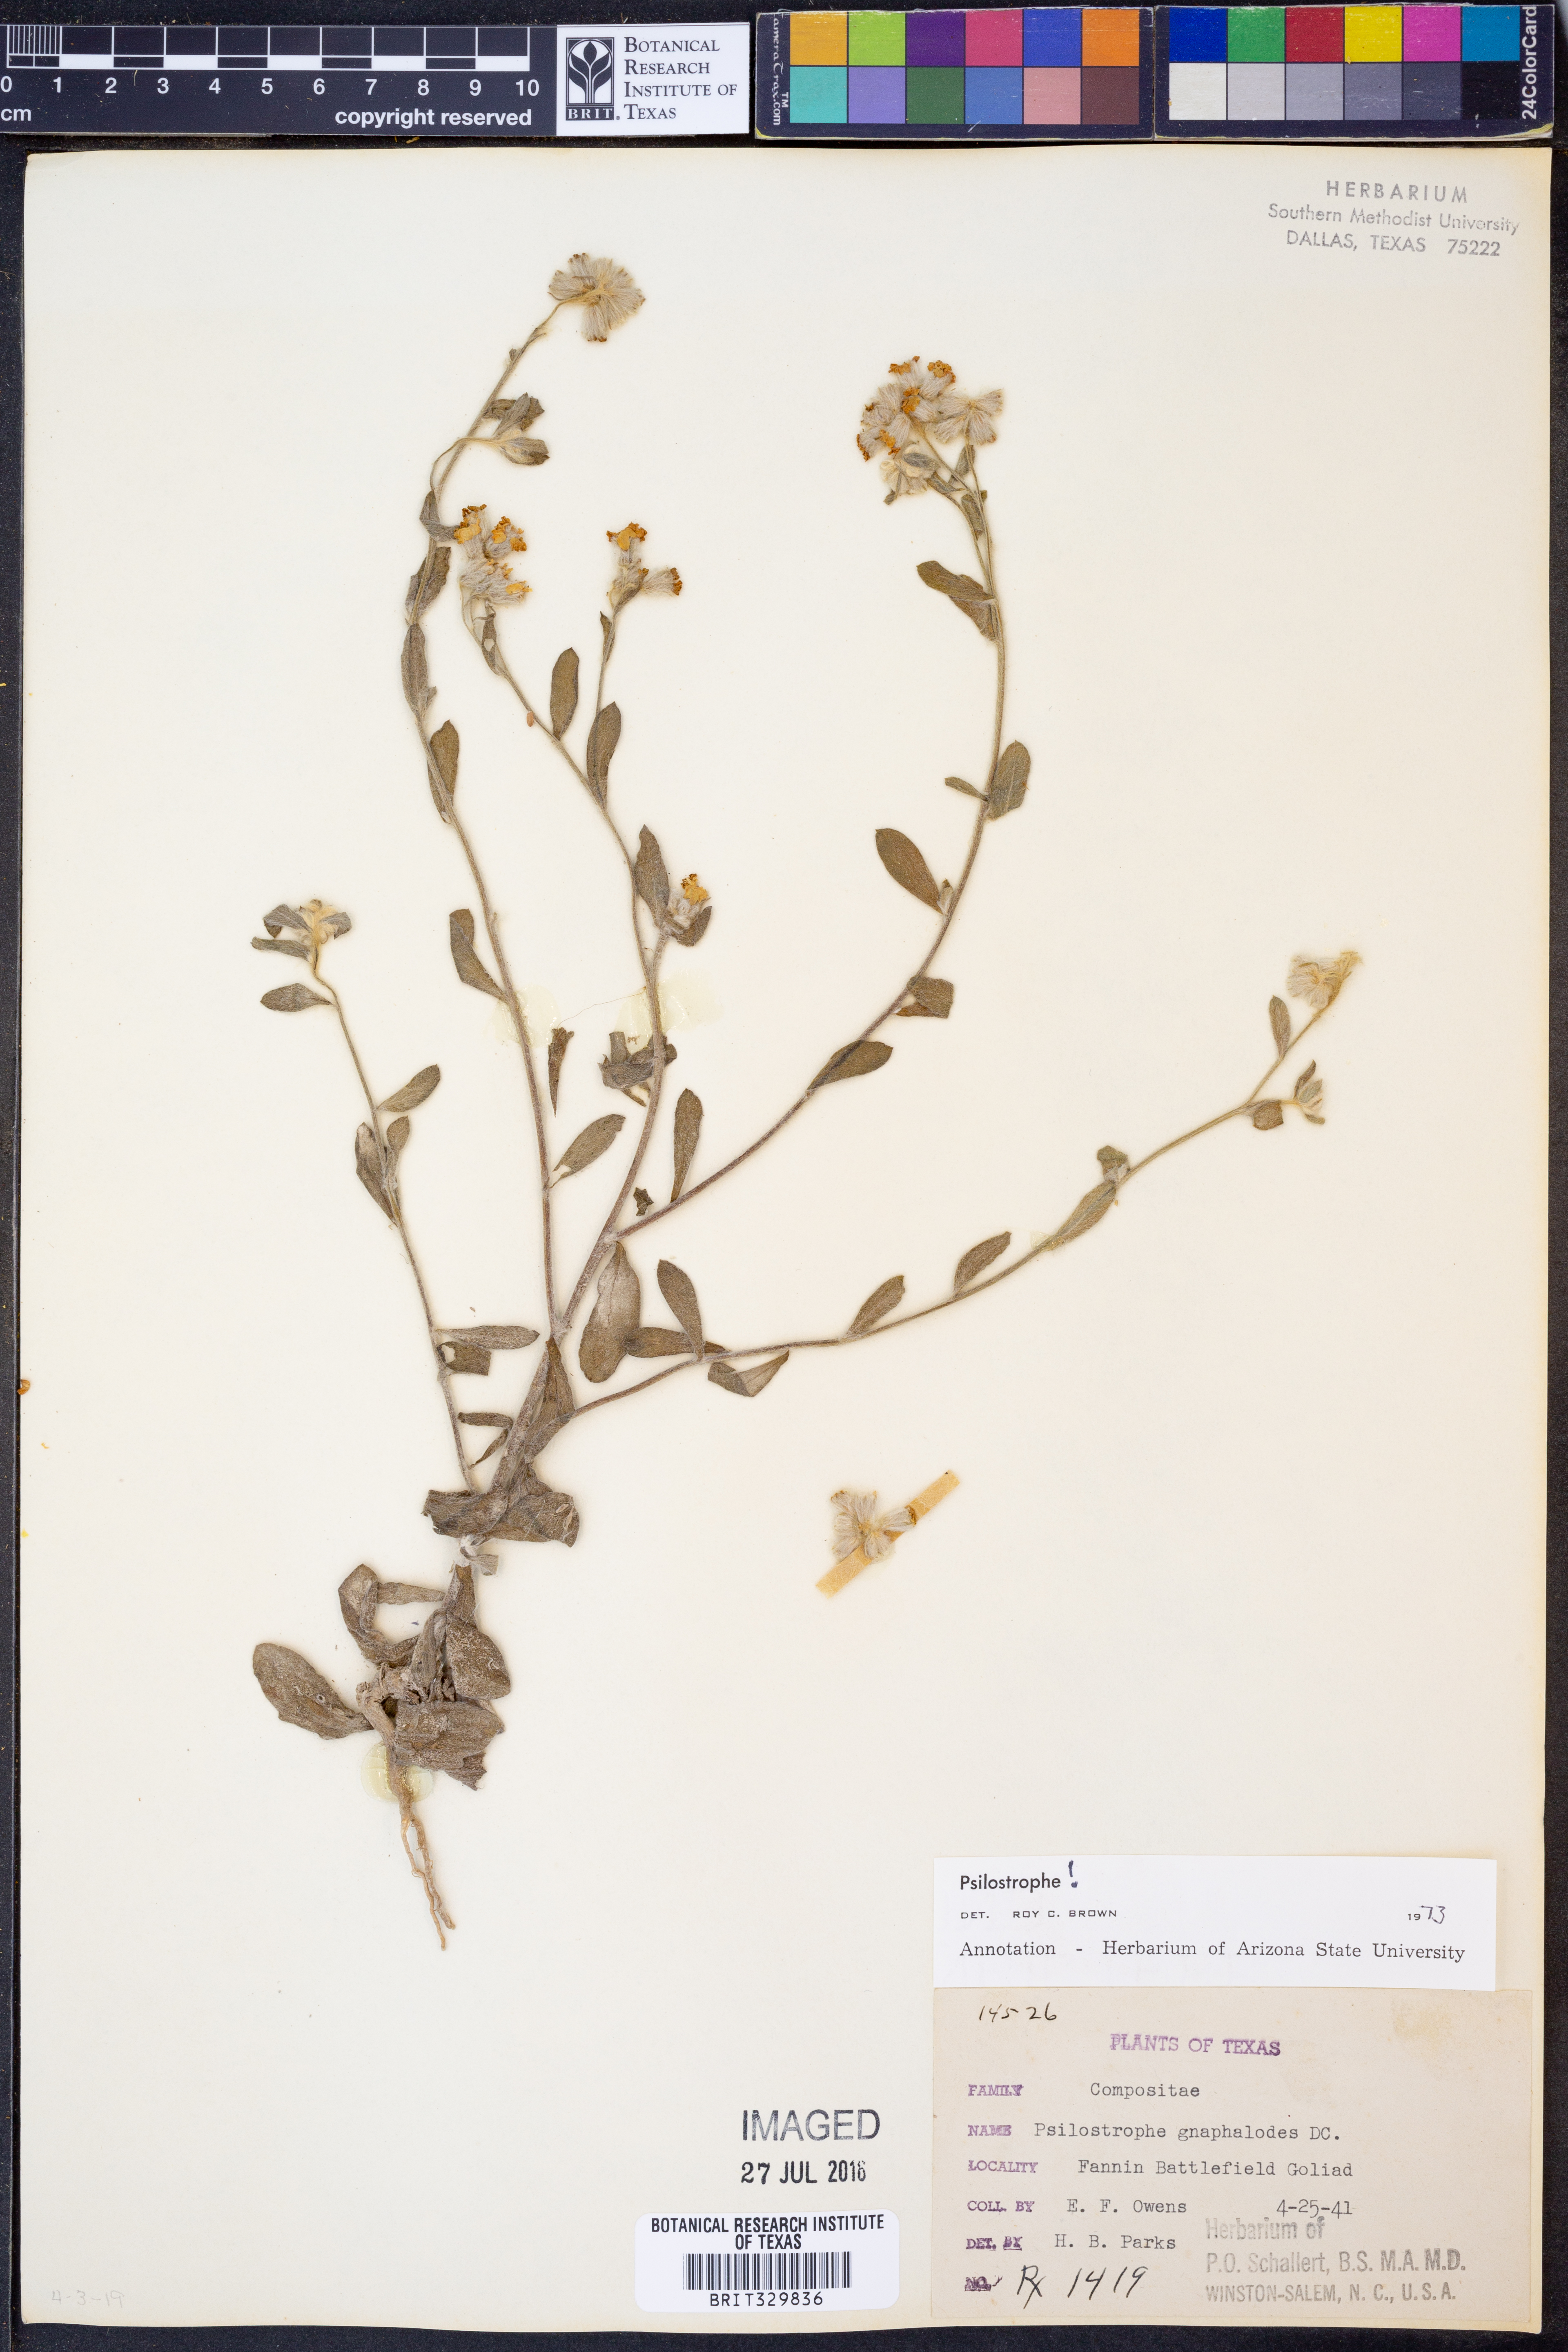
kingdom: Plantae
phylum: Tracheophyta
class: Magnoliopsida
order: Asterales
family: Asteraceae
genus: Psilostrophe
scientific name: Psilostrophe gnaphalioides
